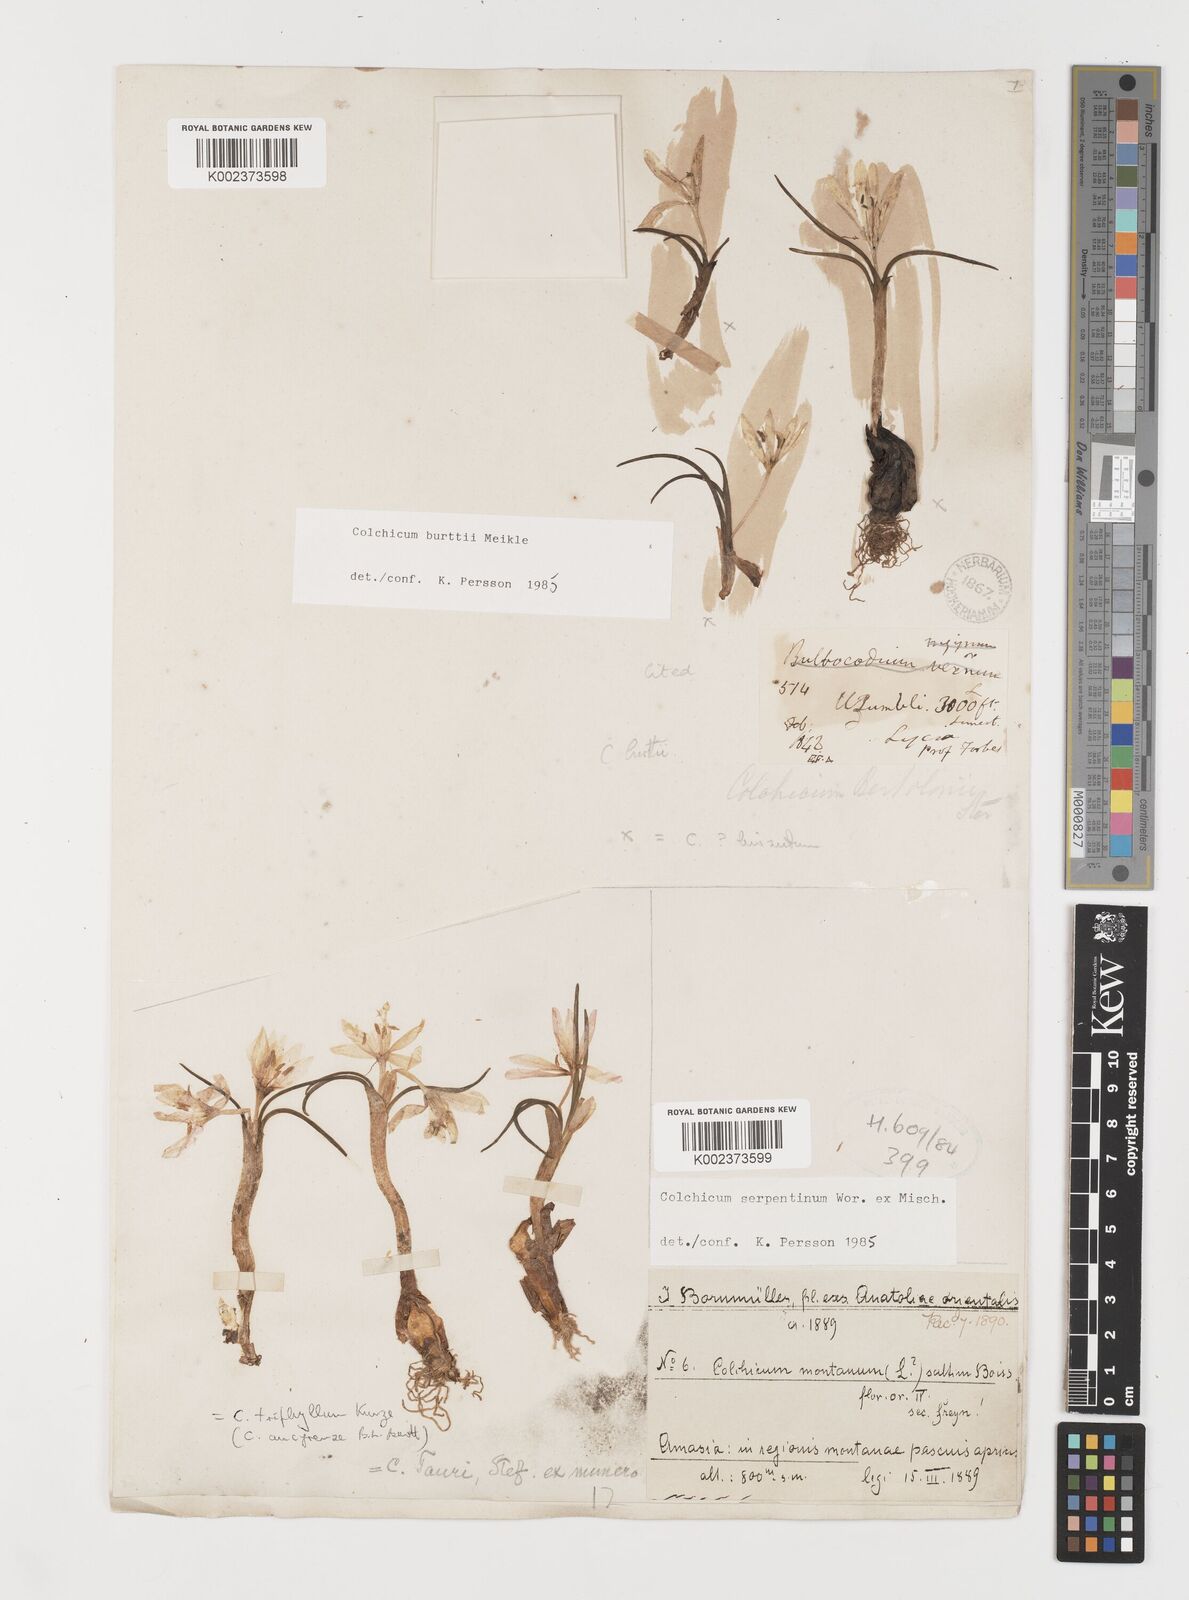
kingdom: Plantae
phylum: Tracheophyta
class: Liliopsida
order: Liliales
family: Colchicaceae
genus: Colchicum
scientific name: Colchicum serpentinum
